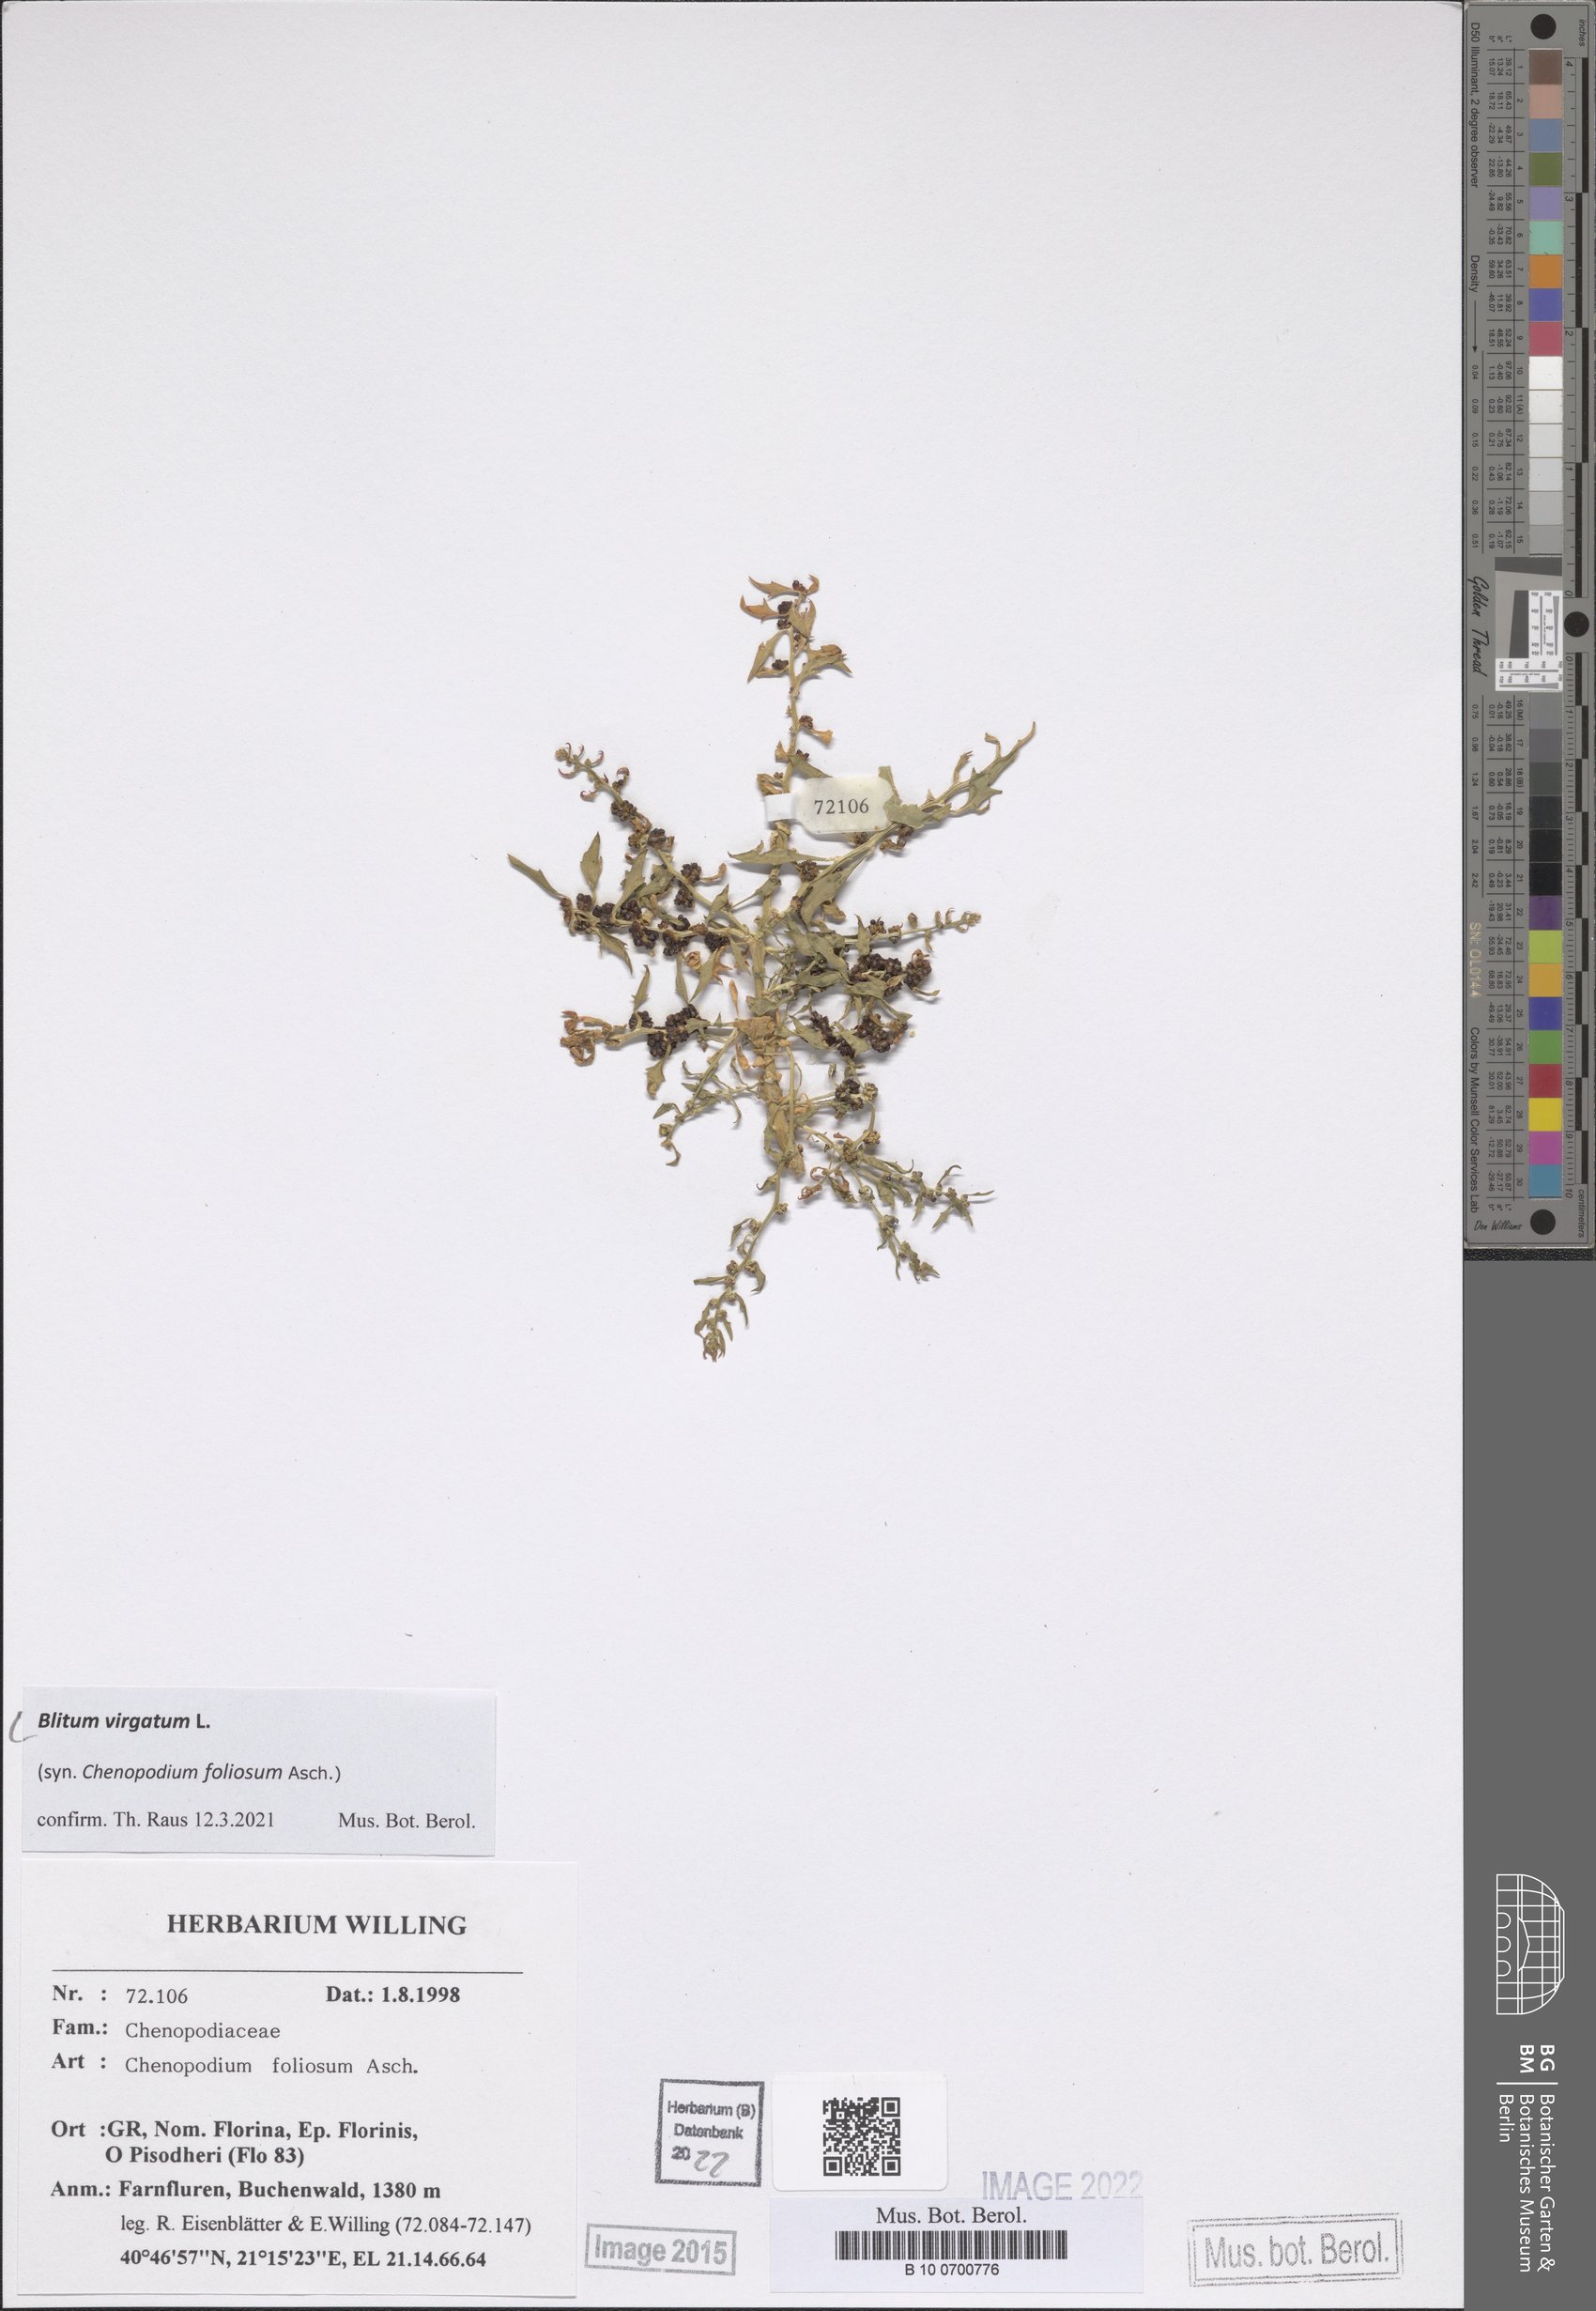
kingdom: Plantae
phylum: Tracheophyta
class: Magnoliopsida
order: Caryophyllales
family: Amaranthaceae
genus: Blitum
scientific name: Blitum virgatum
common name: Strawberry goosefoot
